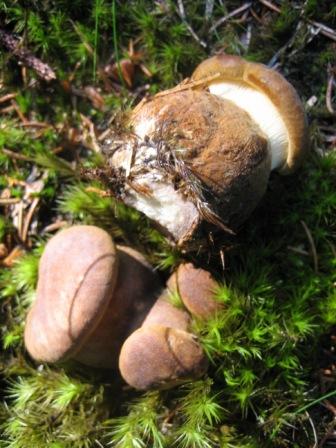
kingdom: Fungi
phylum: Basidiomycota
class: Agaricomycetes
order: Boletales
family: Tapinellaceae
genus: Tapinella
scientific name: Tapinella atrotomentosa
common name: sortfiltet viftesvamp
